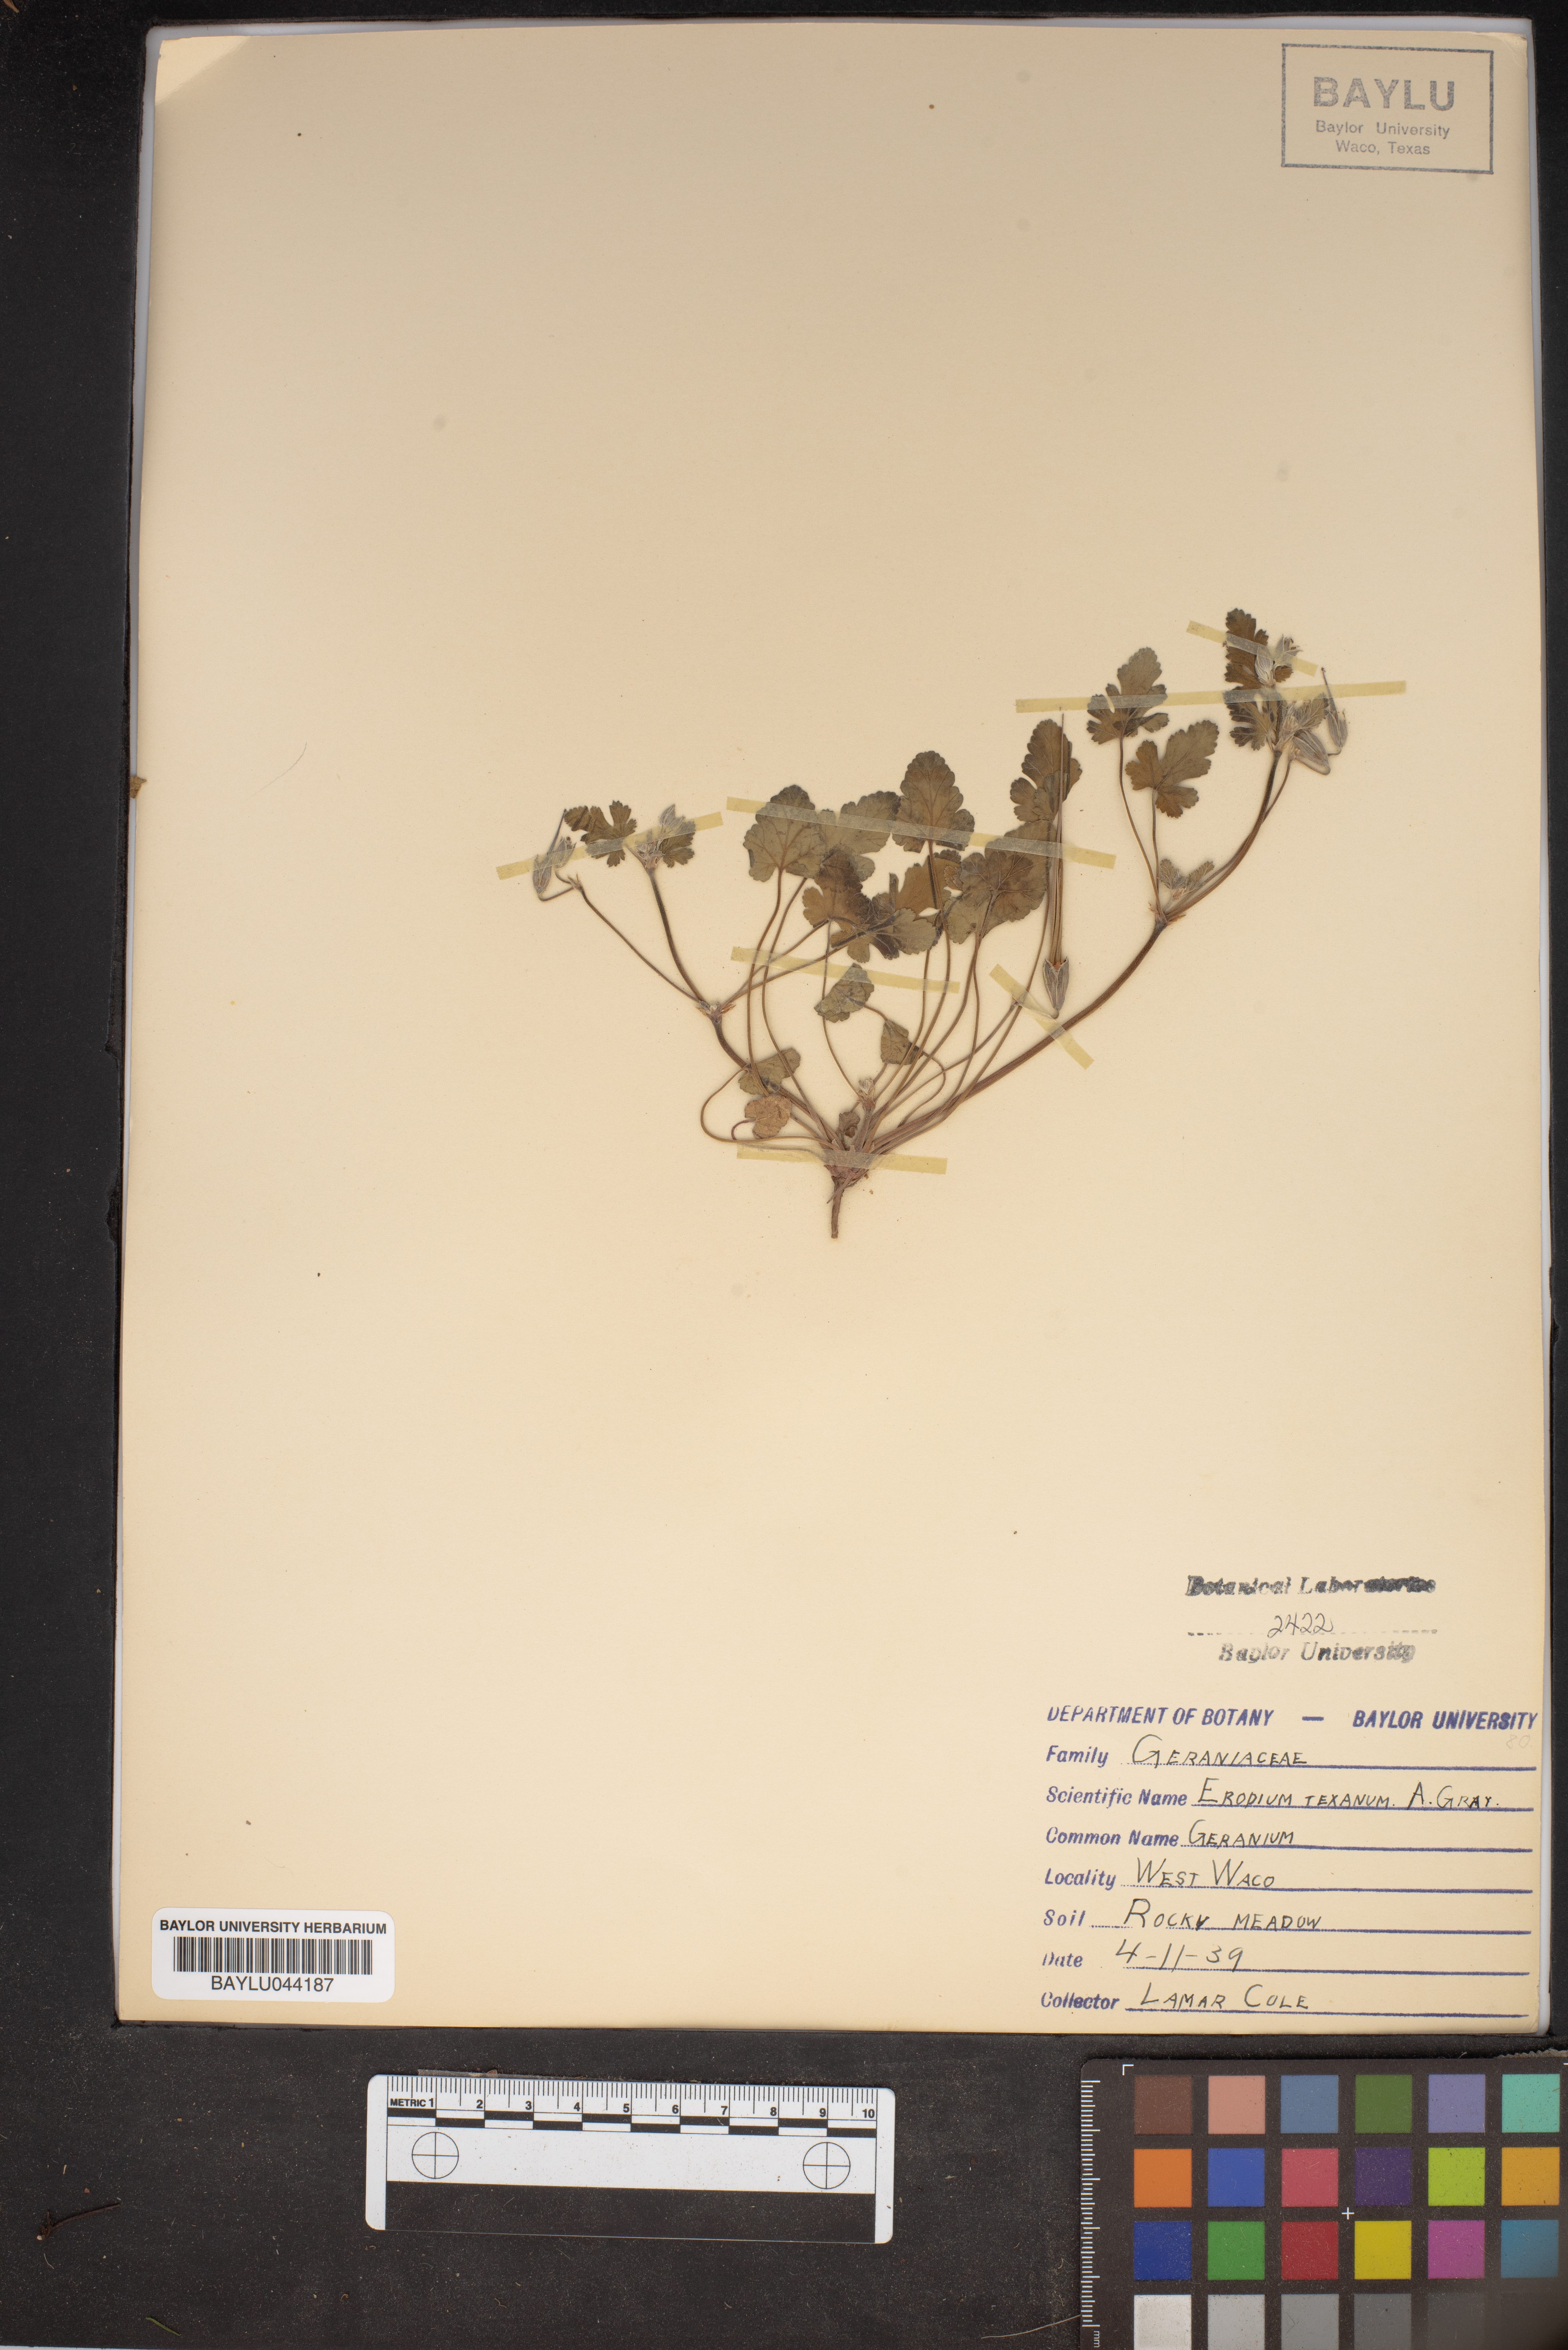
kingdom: Plantae
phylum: Tracheophyta
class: Magnoliopsida
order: Geraniales
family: Geraniaceae
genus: Erodium
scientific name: Erodium texanum
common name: Texas stork's-bill
